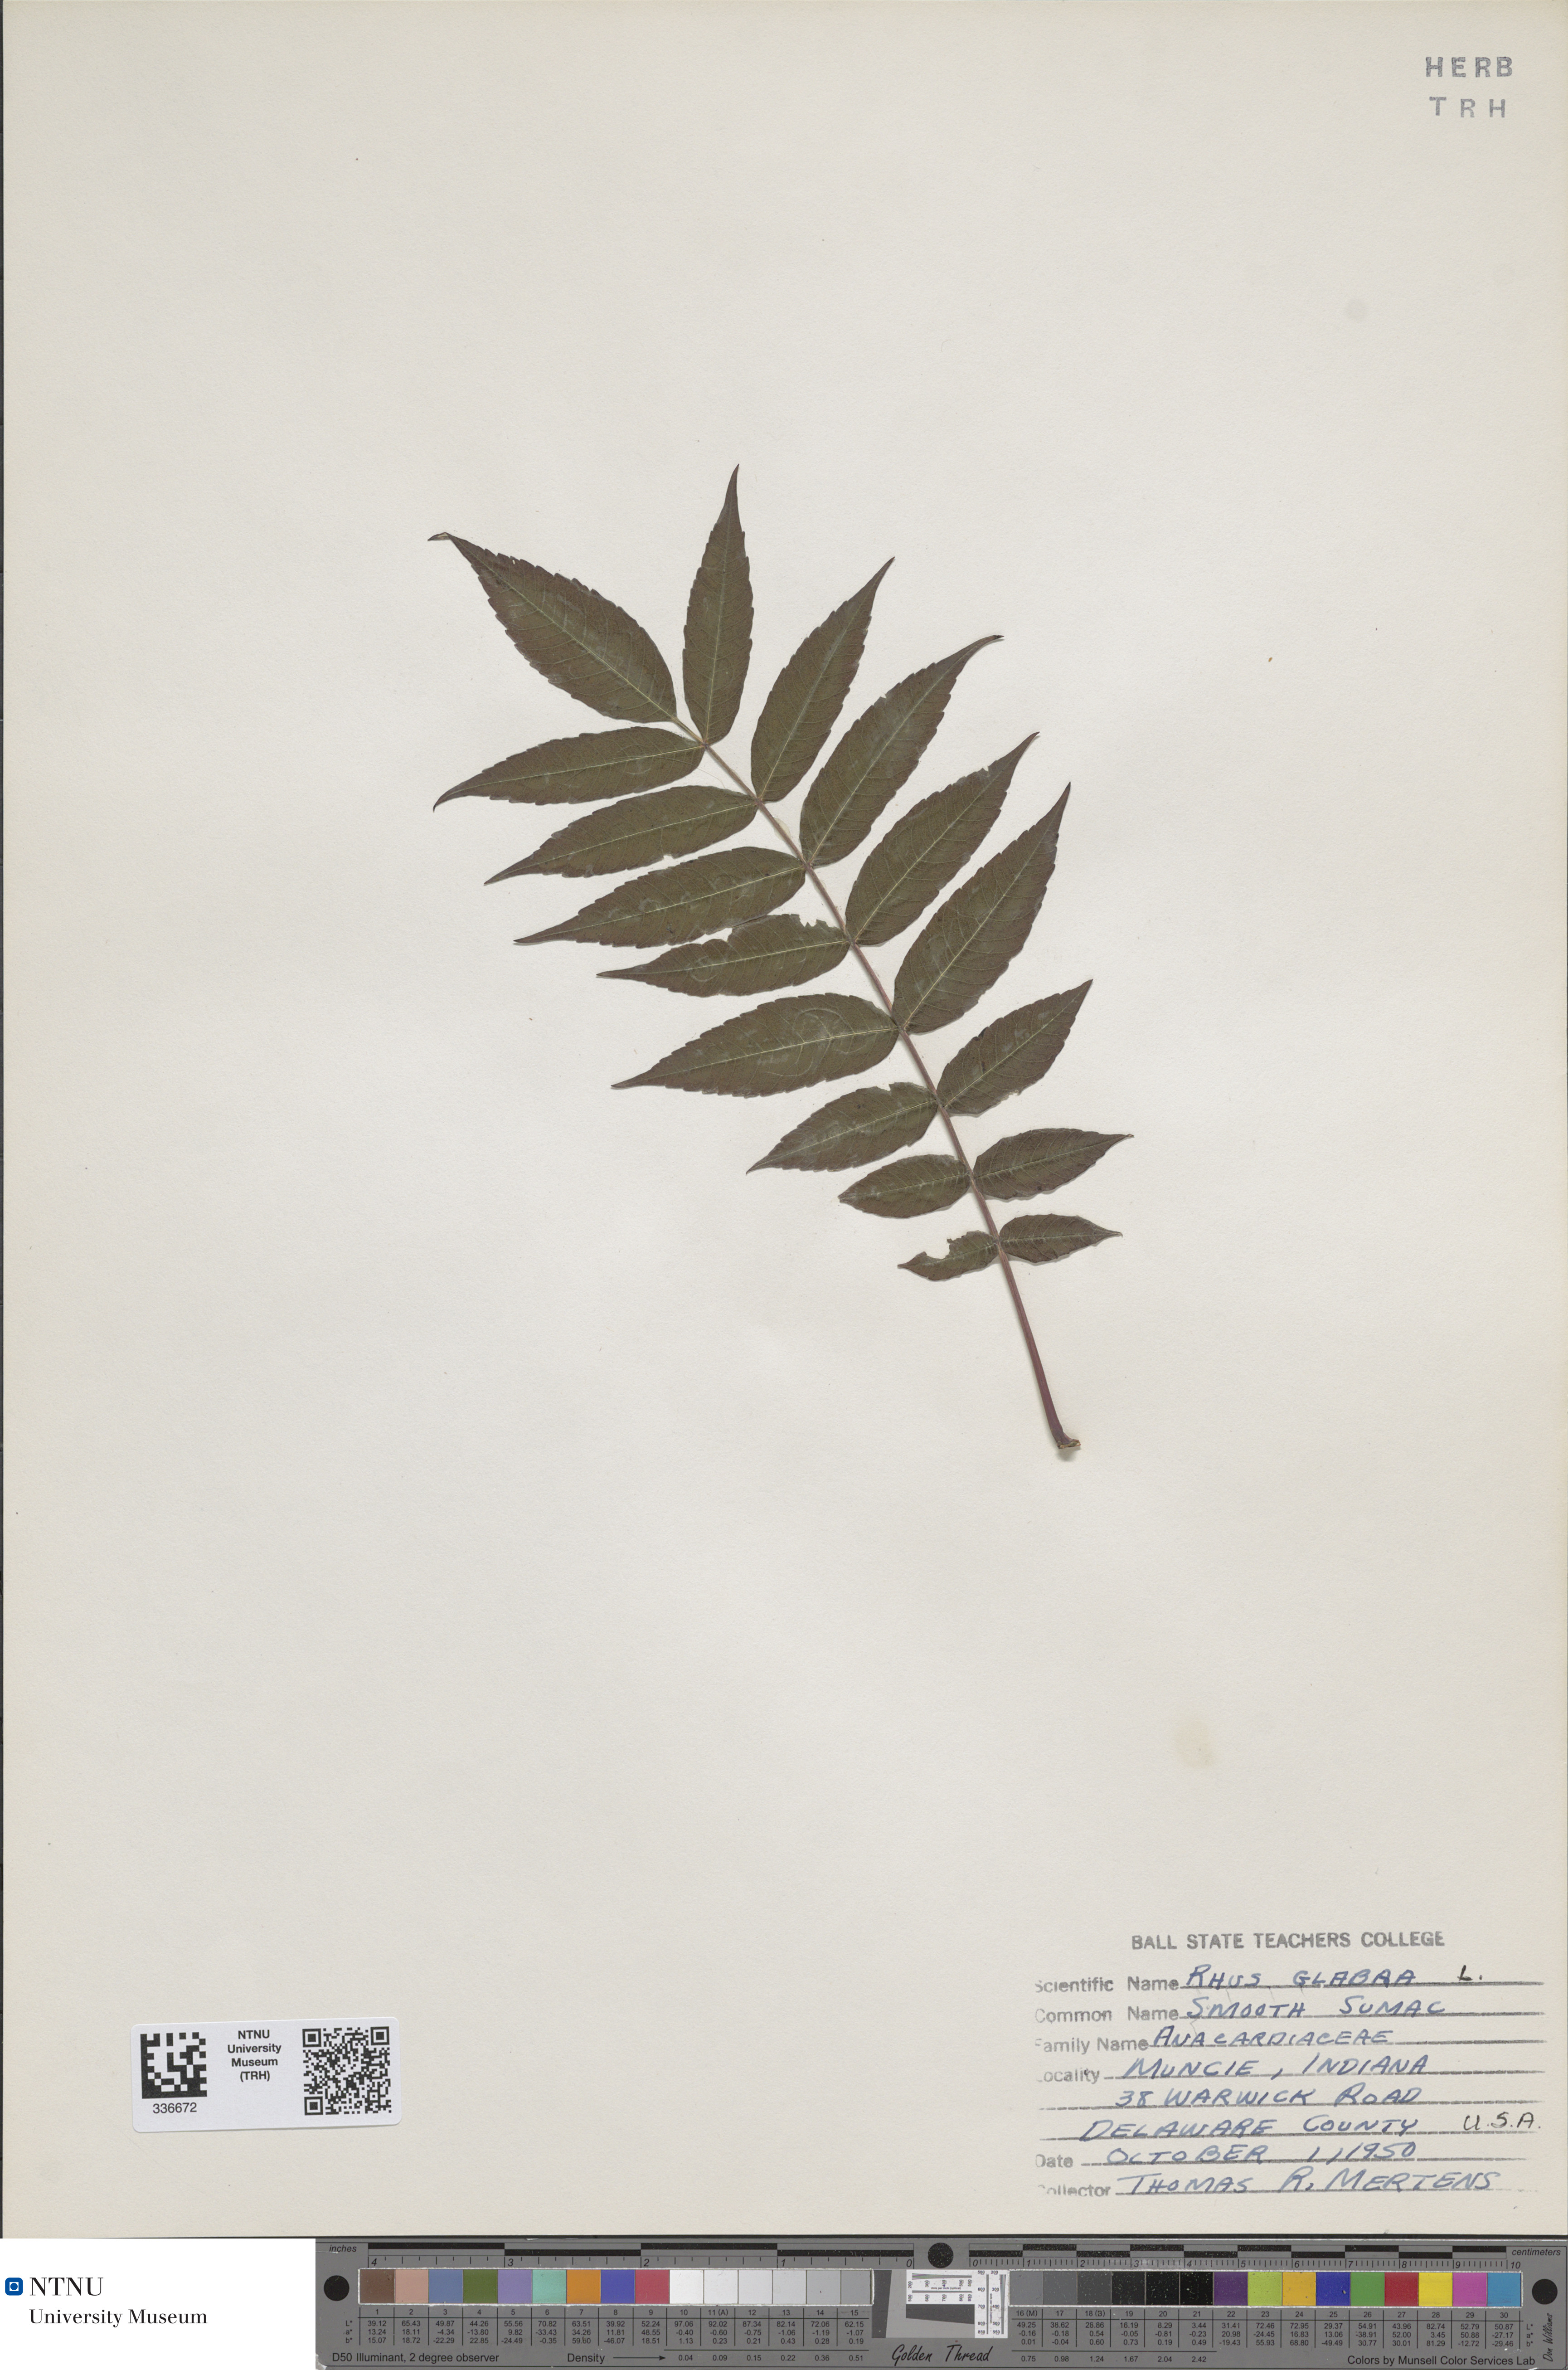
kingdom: Plantae
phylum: Tracheophyta
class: Magnoliopsida
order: Sapindales
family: Anacardiaceae
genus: Rhus
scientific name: Rhus glabra
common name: Scarlet sumac
